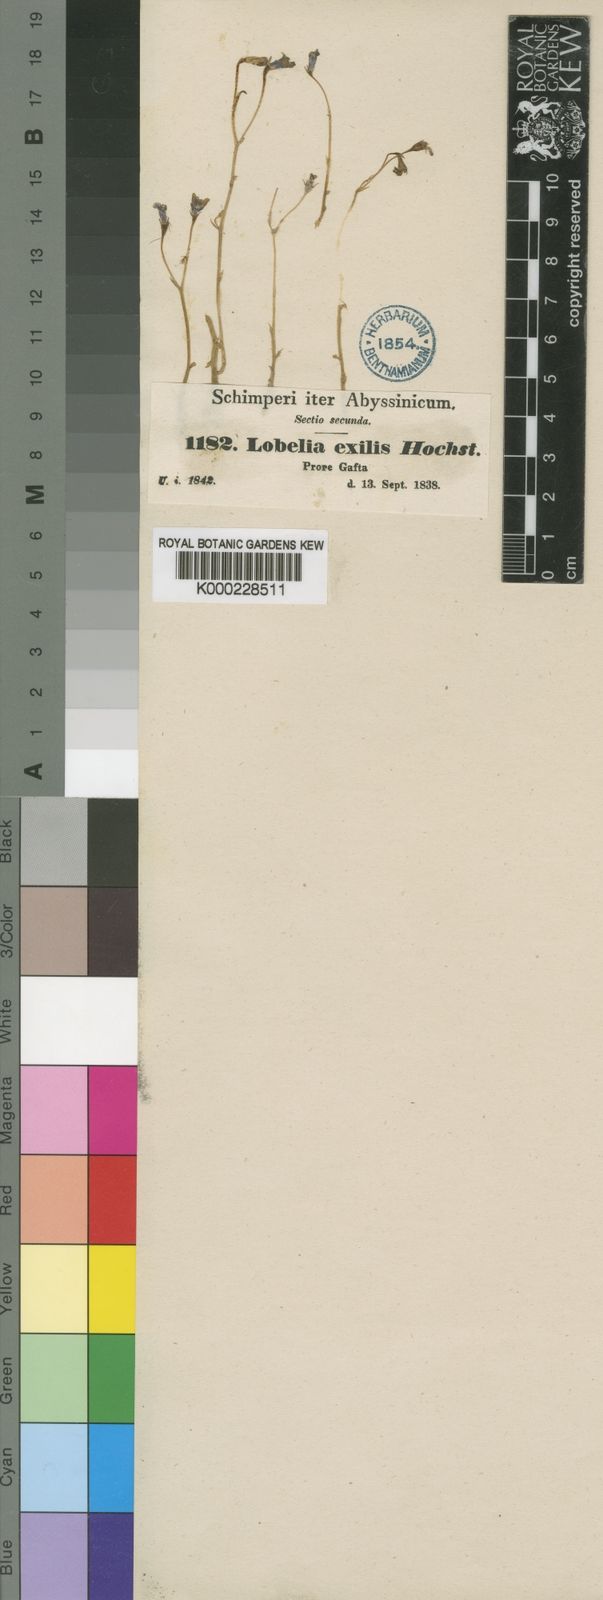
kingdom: Plantae
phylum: Tracheophyta
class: Magnoliopsida
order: Asterales
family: Campanulaceae
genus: Lobelia
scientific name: Lobelia
